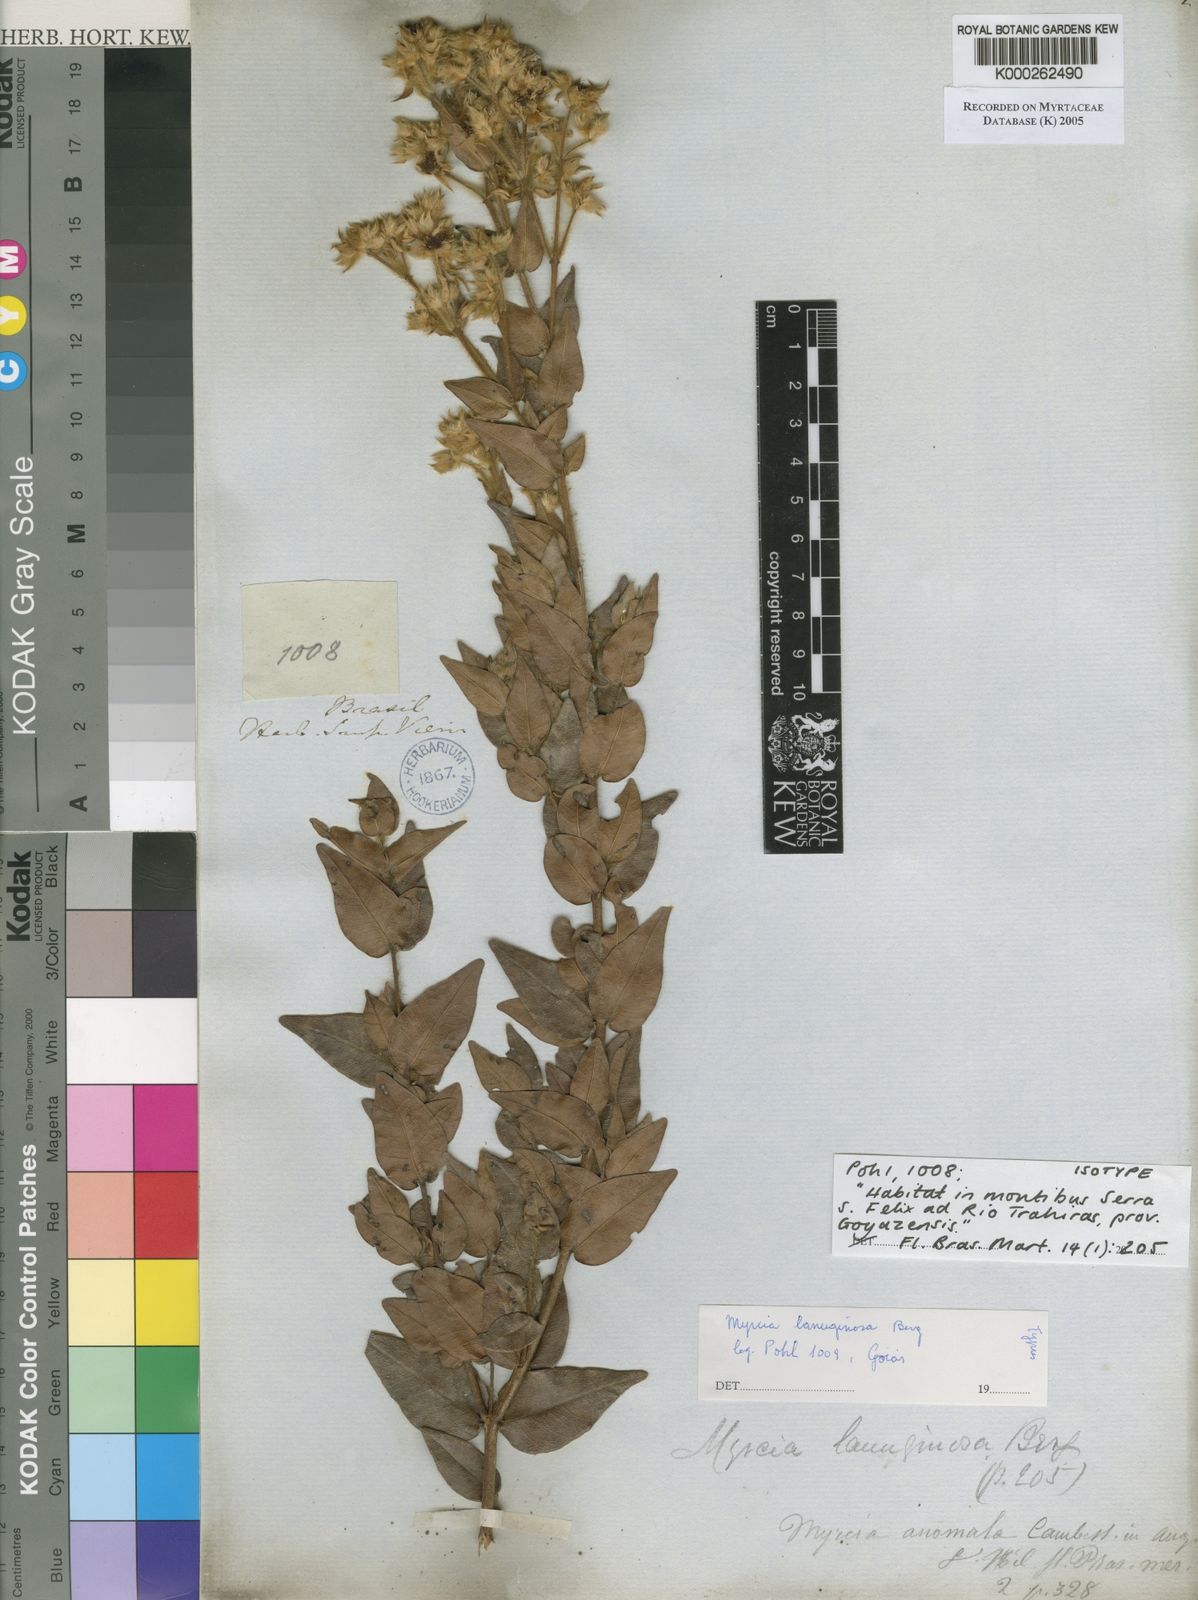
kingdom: Plantae
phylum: Tracheophyta
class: Magnoliopsida
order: Myrtales
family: Myrtaceae
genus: Myrcia
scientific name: Myrcia lanuginosa
